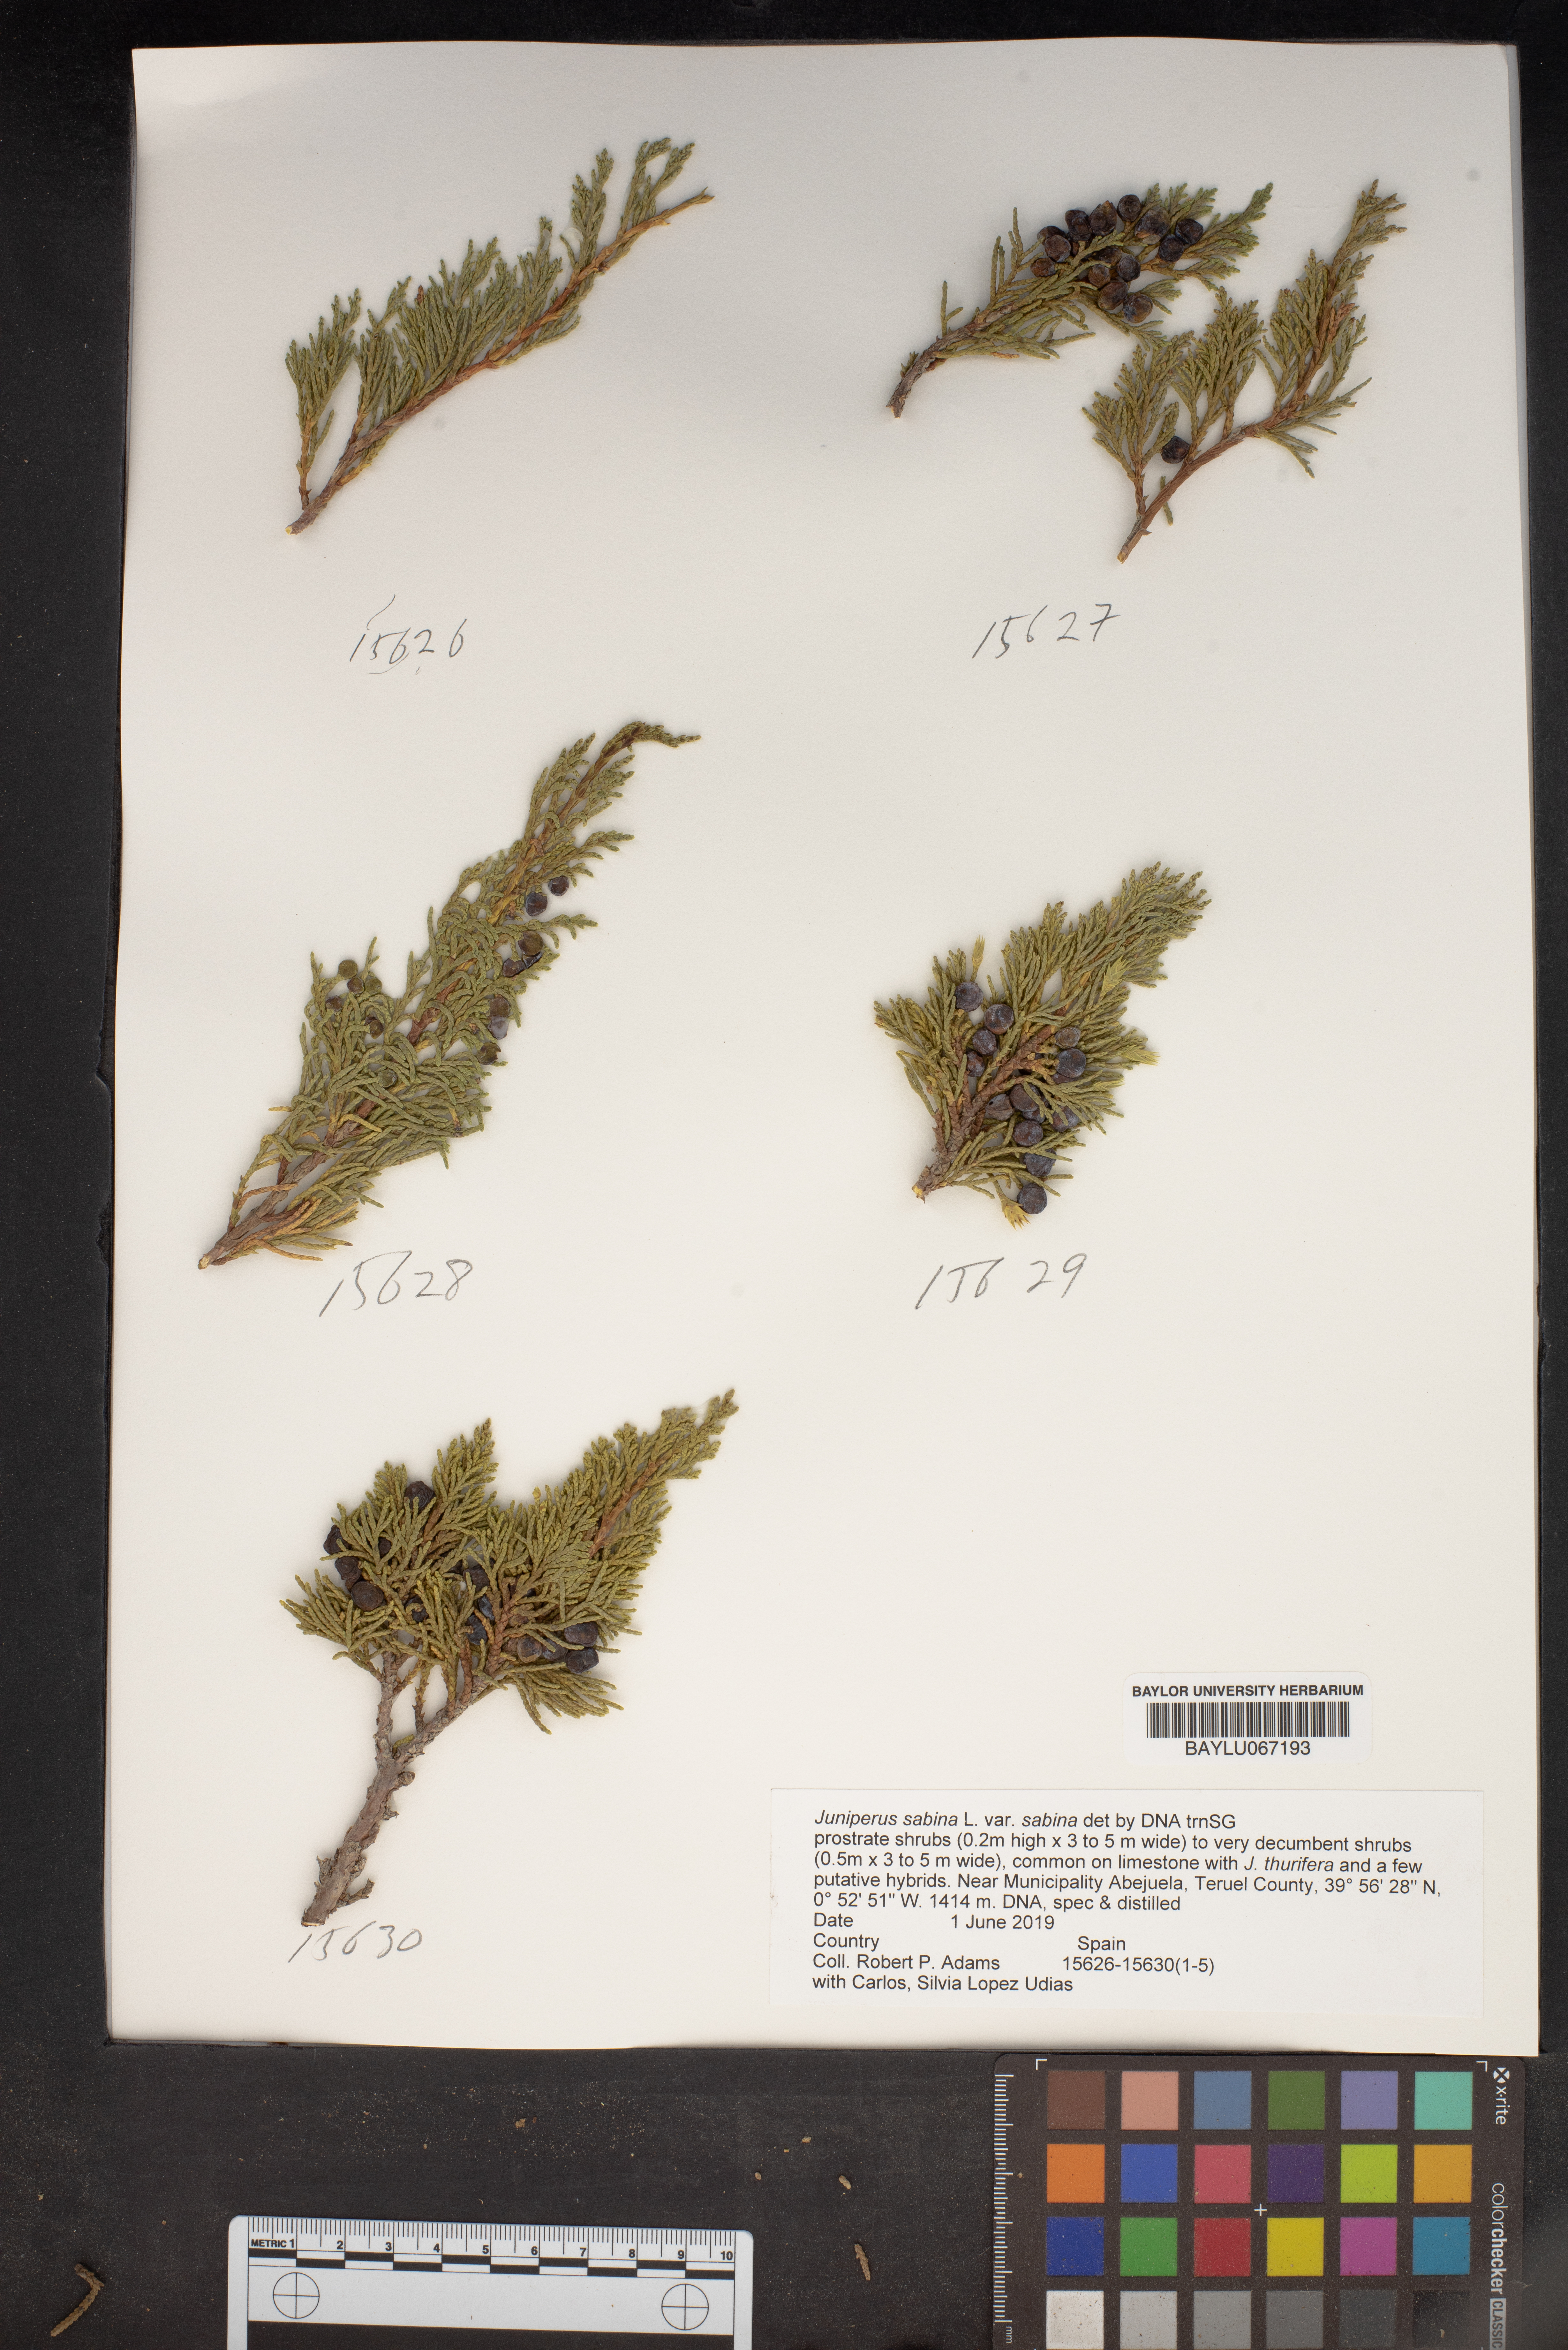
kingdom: Plantae
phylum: Tracheophyta
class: Pinopsida
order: Pinales
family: Cupressaceae
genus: Juniperus
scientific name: Juniperus sabina
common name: Savin
